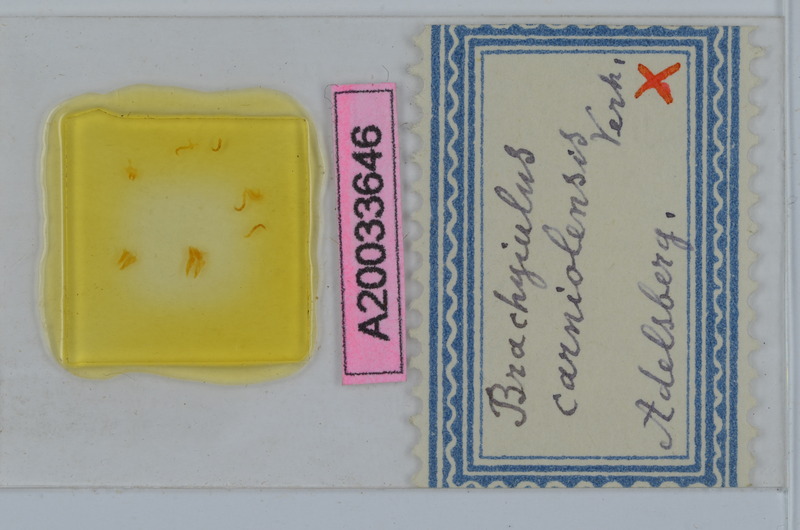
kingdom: Animalia
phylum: Arthropoda
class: Diplopoda
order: Julida
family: Julidae
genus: Megaphyllum
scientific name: Megaphyllum carniolense
